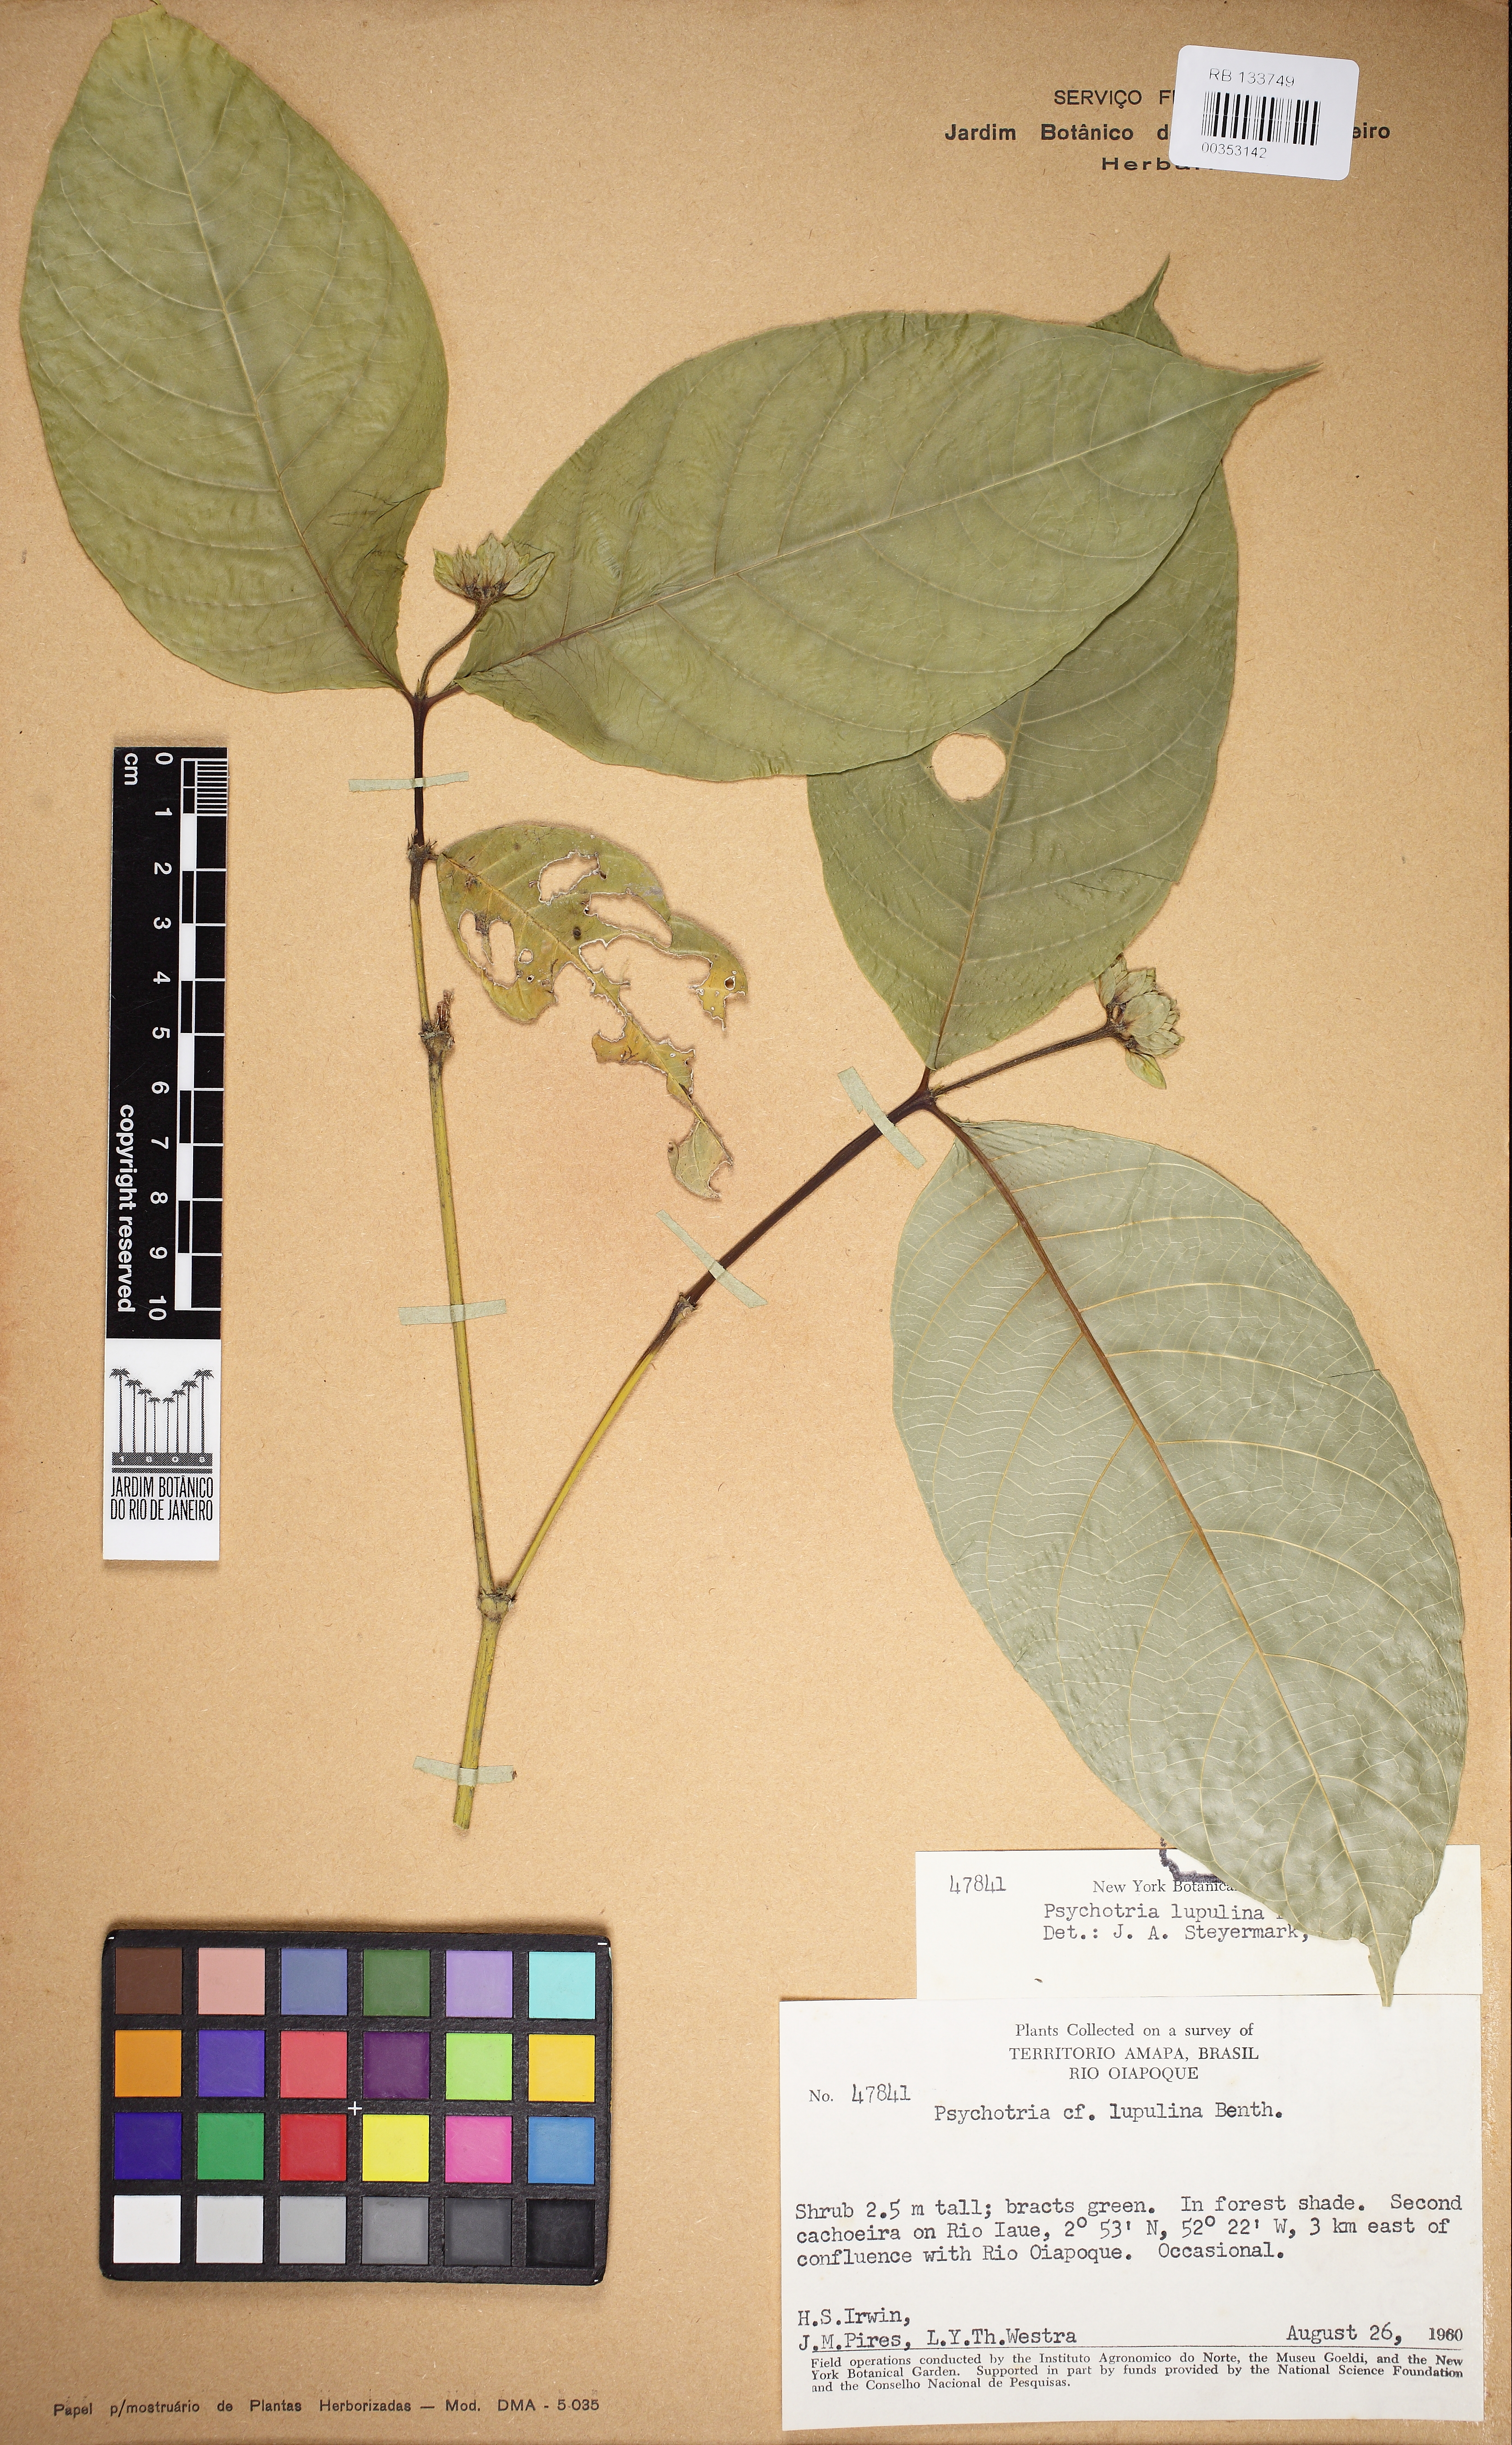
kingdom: Plantae
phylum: Tracheophyta
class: Magnoliopsida
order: Gentianales
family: Rubiaceae
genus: Palicourea
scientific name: Palicourea justiciifolia
